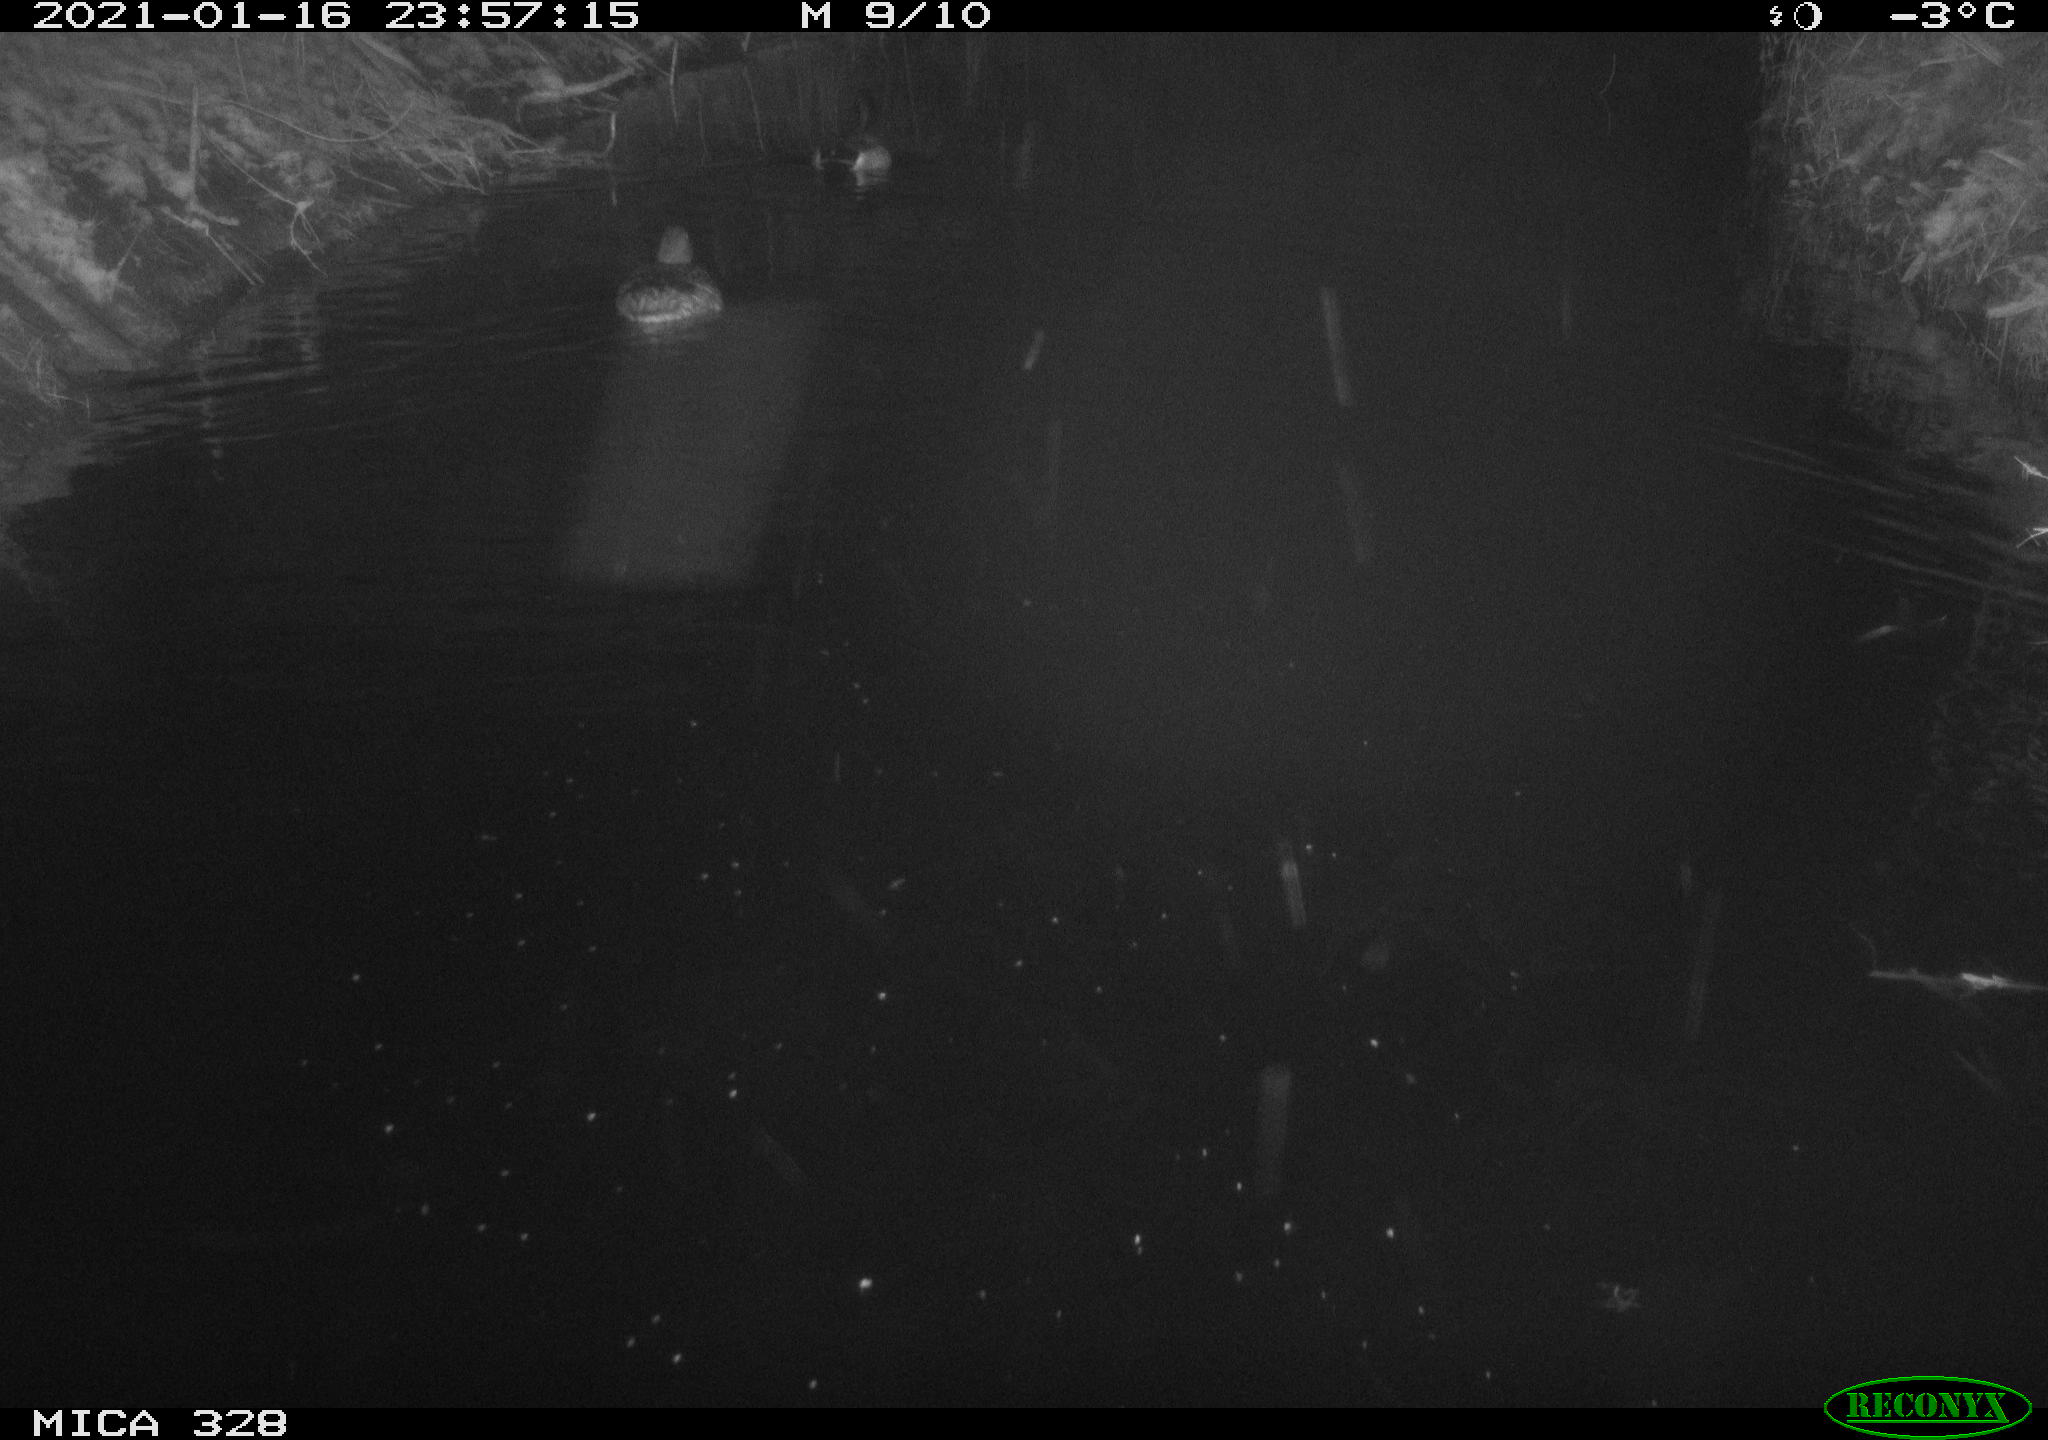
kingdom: Animalia
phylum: Chordata
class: Aves
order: Anseriformes
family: Anatidae
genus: Anas
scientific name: Anas platyrhynchos
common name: Mallard
